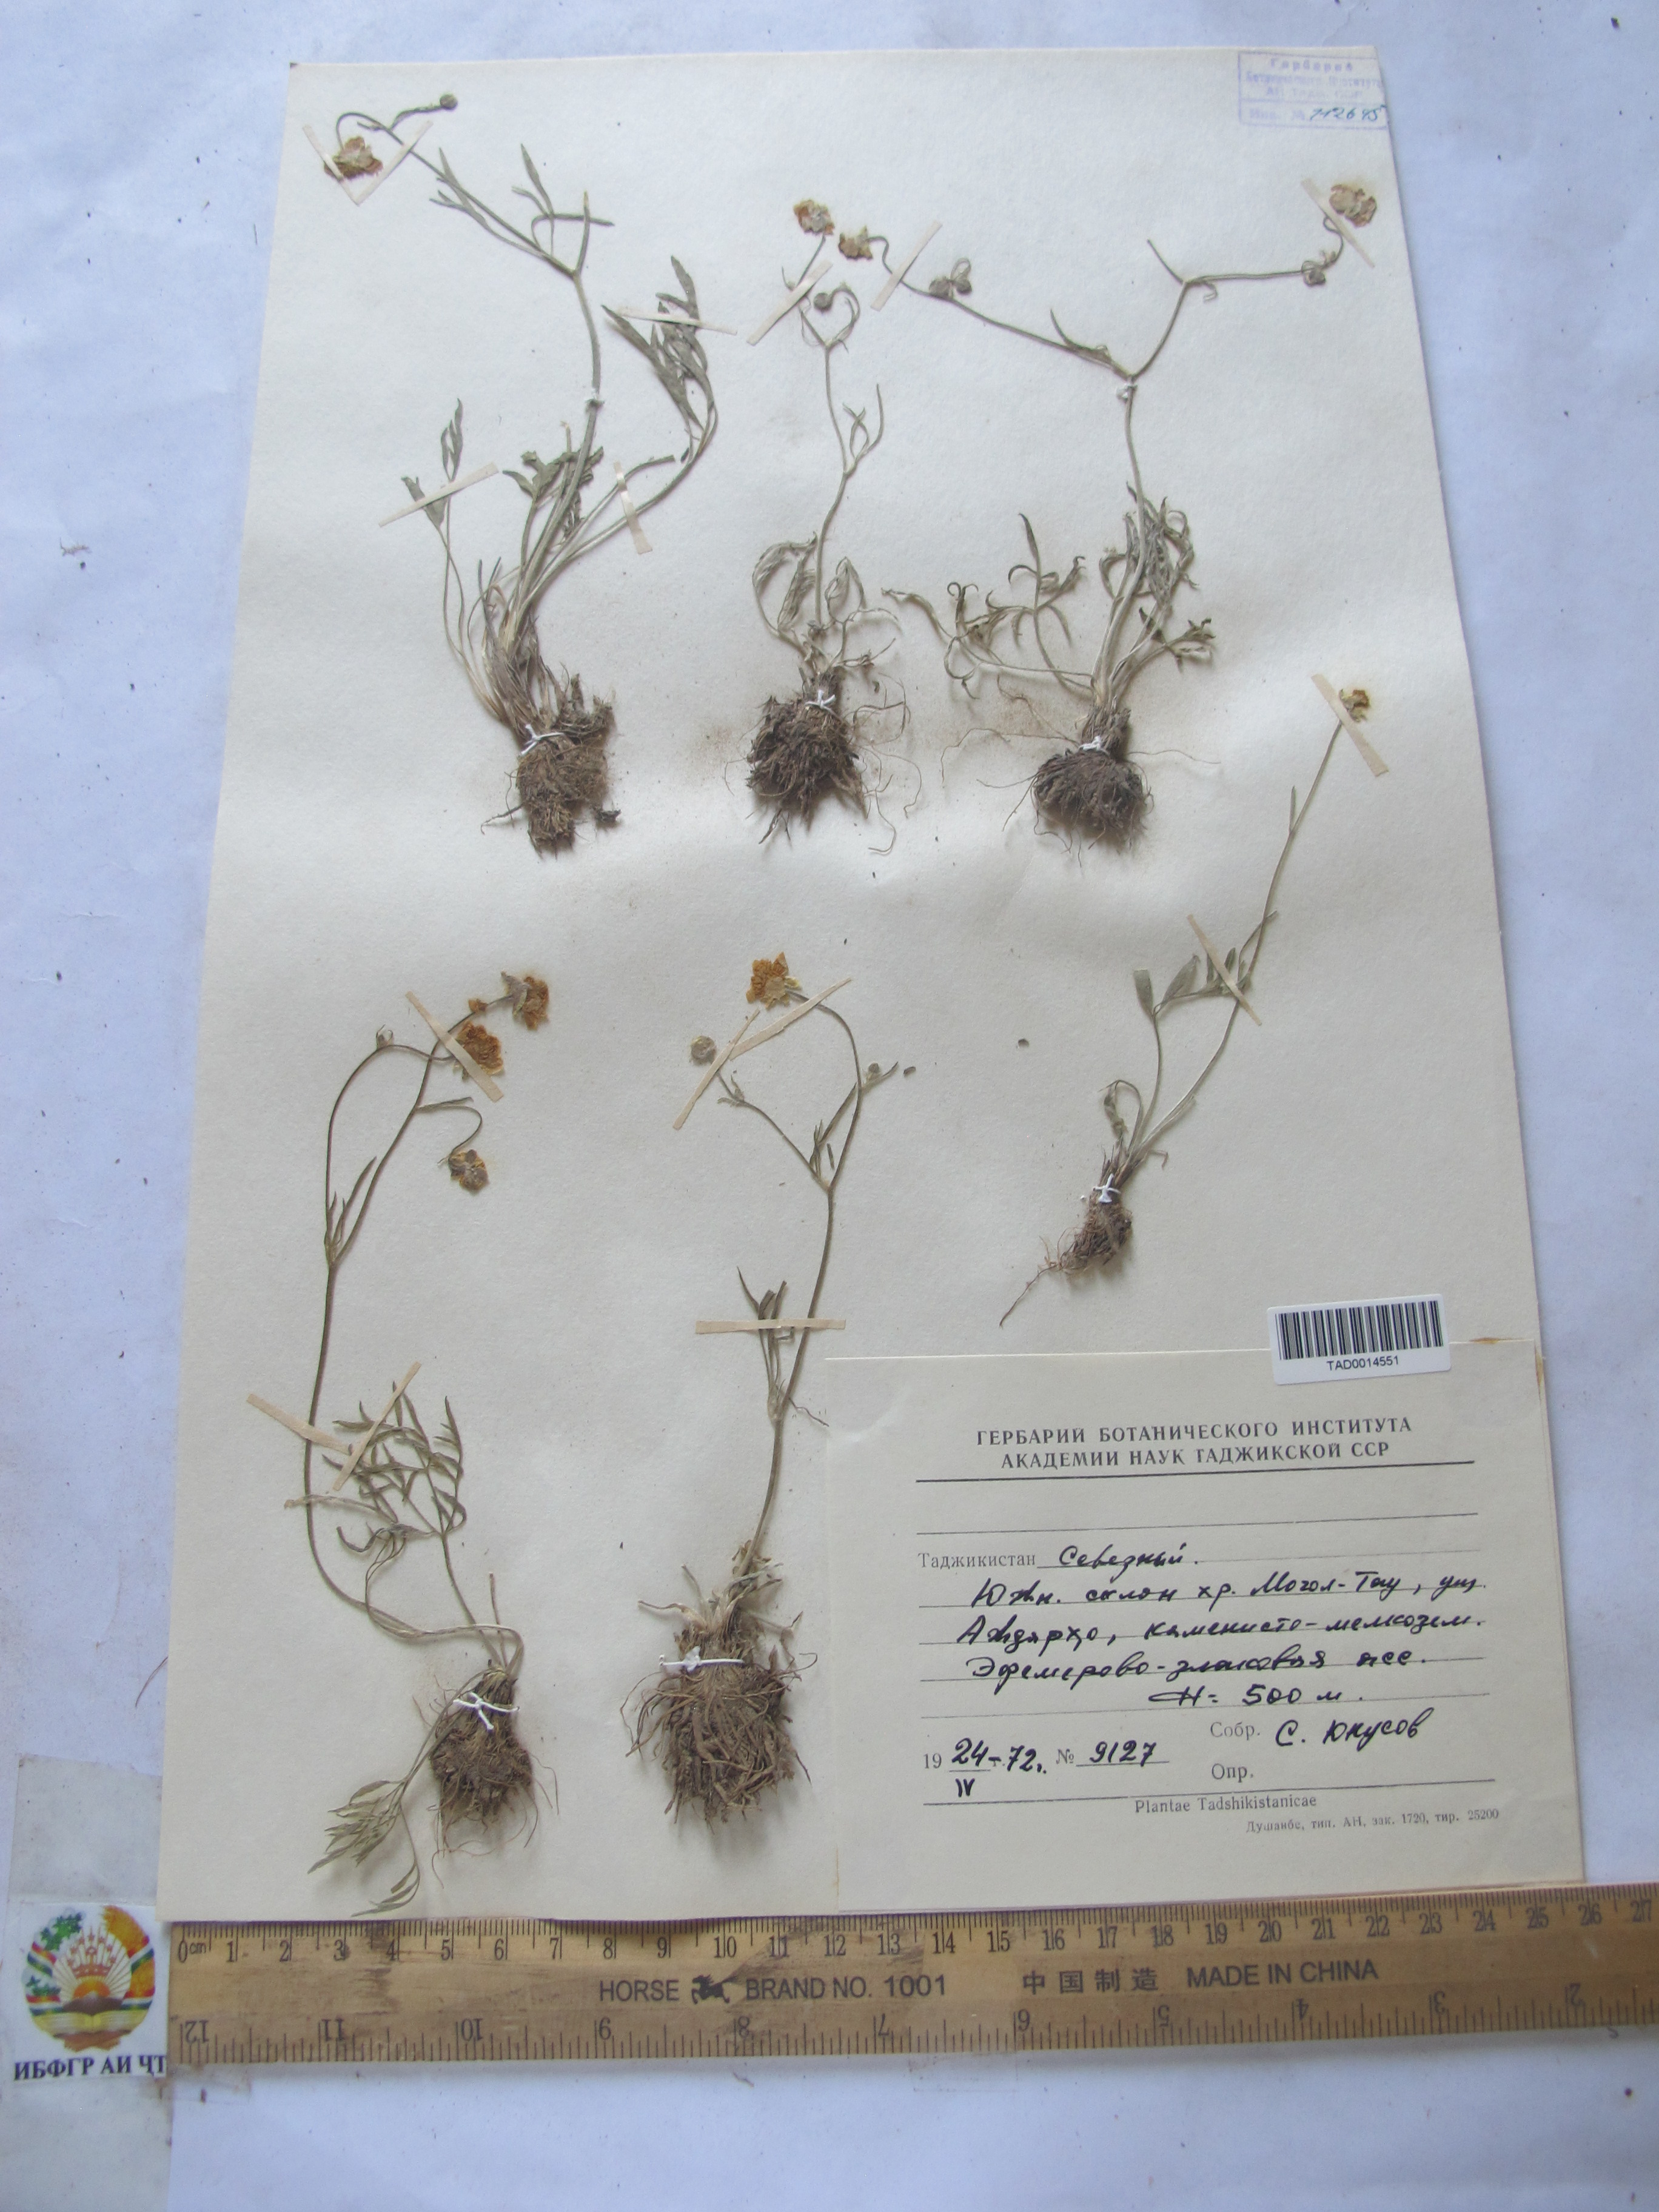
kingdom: Plantae
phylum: Tracheophyta
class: Magnoliopsida
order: Ranunculales
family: Ranunculaceae
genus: Ranunculus
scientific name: Ranunculus linearilobus
